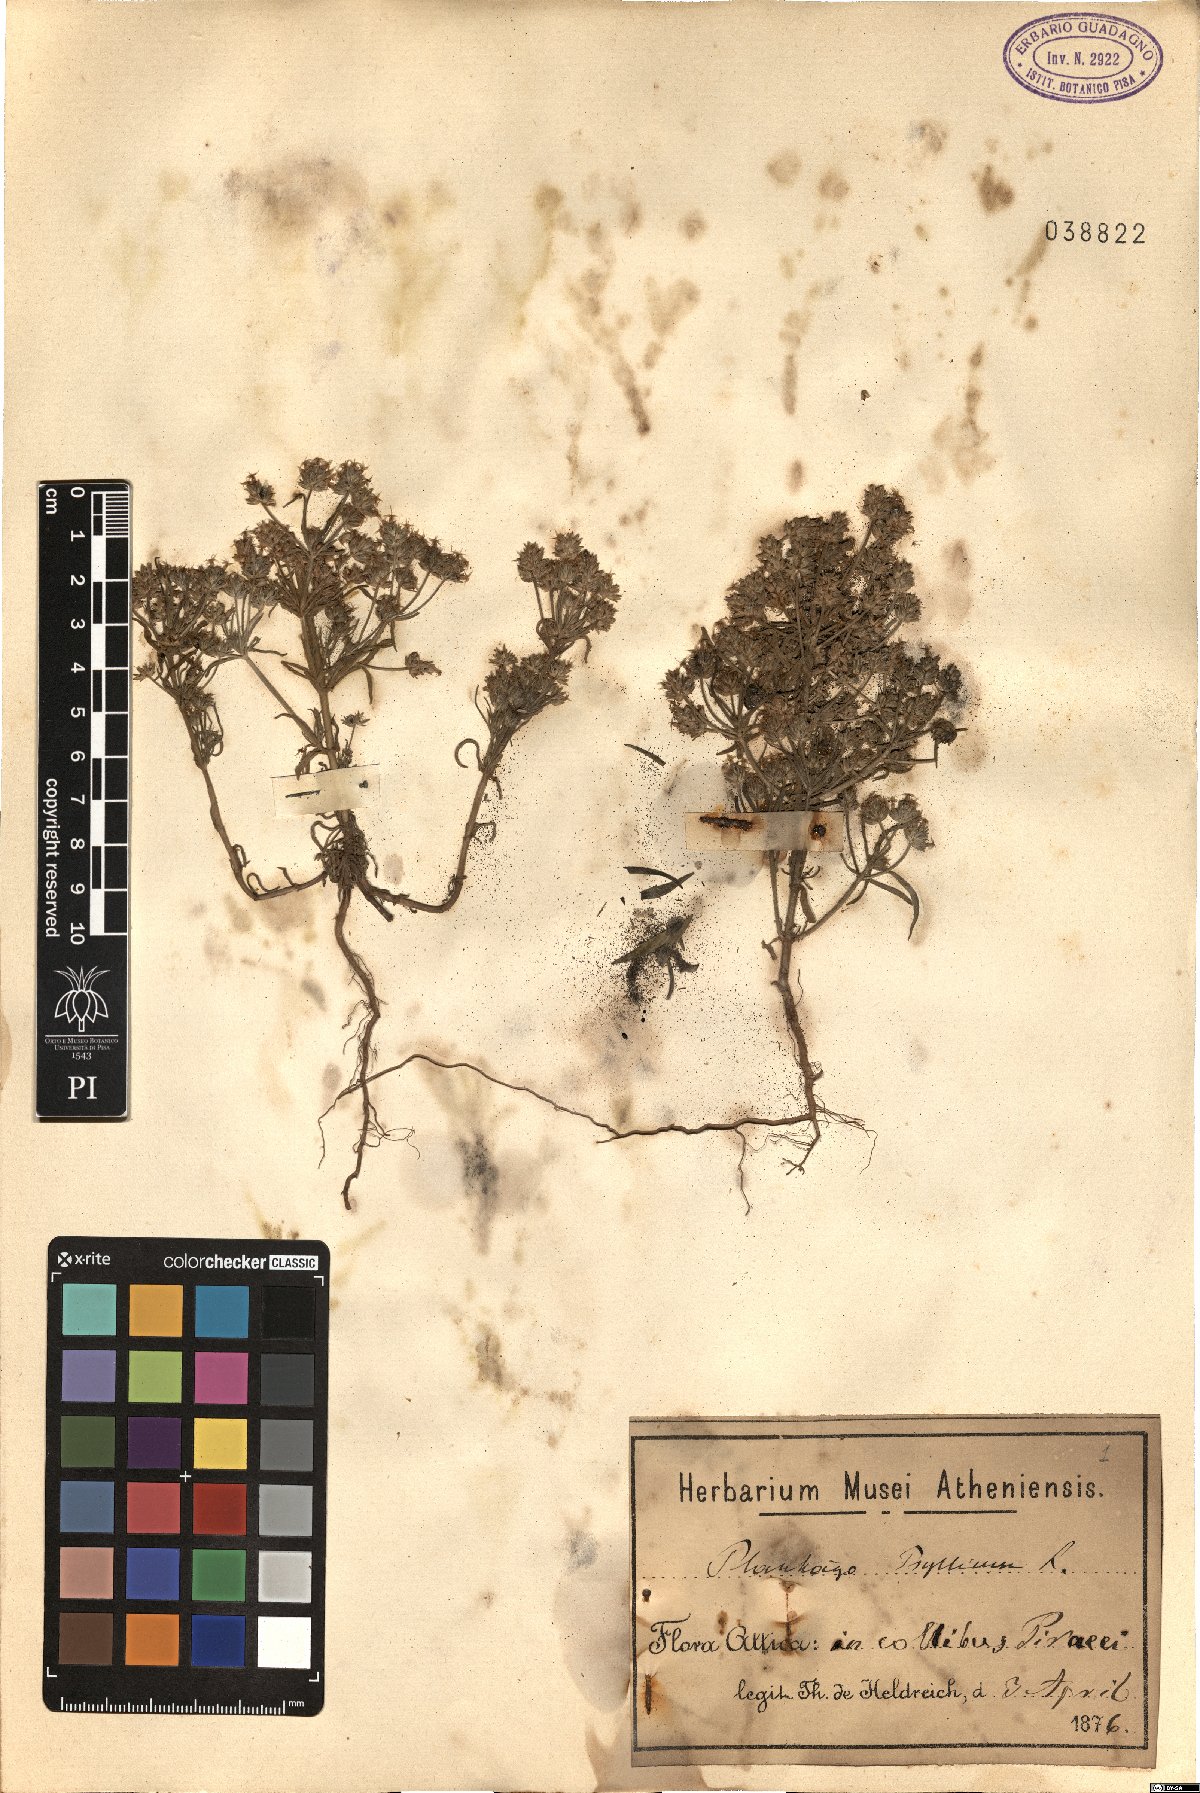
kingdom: Plantae
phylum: Tracheophyta
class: Magnoliopsida
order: Lamiales
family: Plantaginaceae
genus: Plantago
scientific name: Plantago
